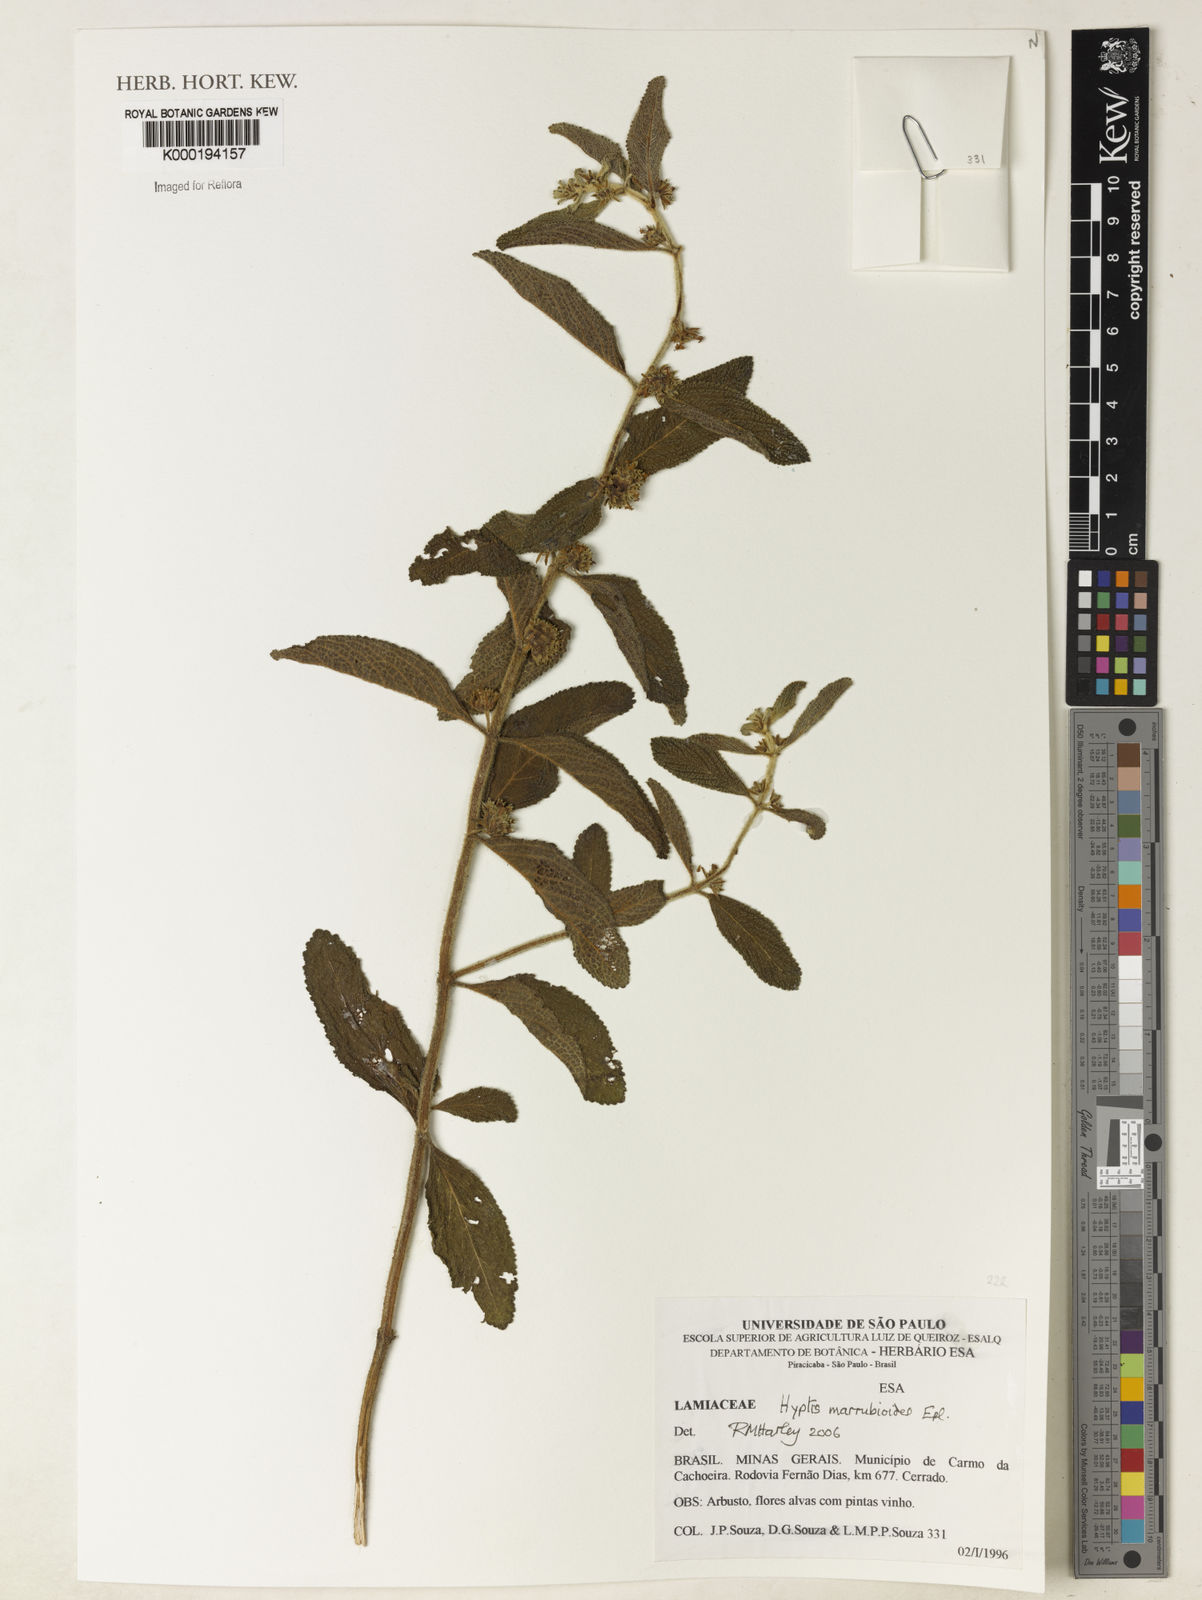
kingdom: Plantae
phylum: Tracheophyta
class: Magnoliopsida
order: Lamiales
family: Lamiaceae
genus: Hyptis
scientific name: Hyptis marrubioides
